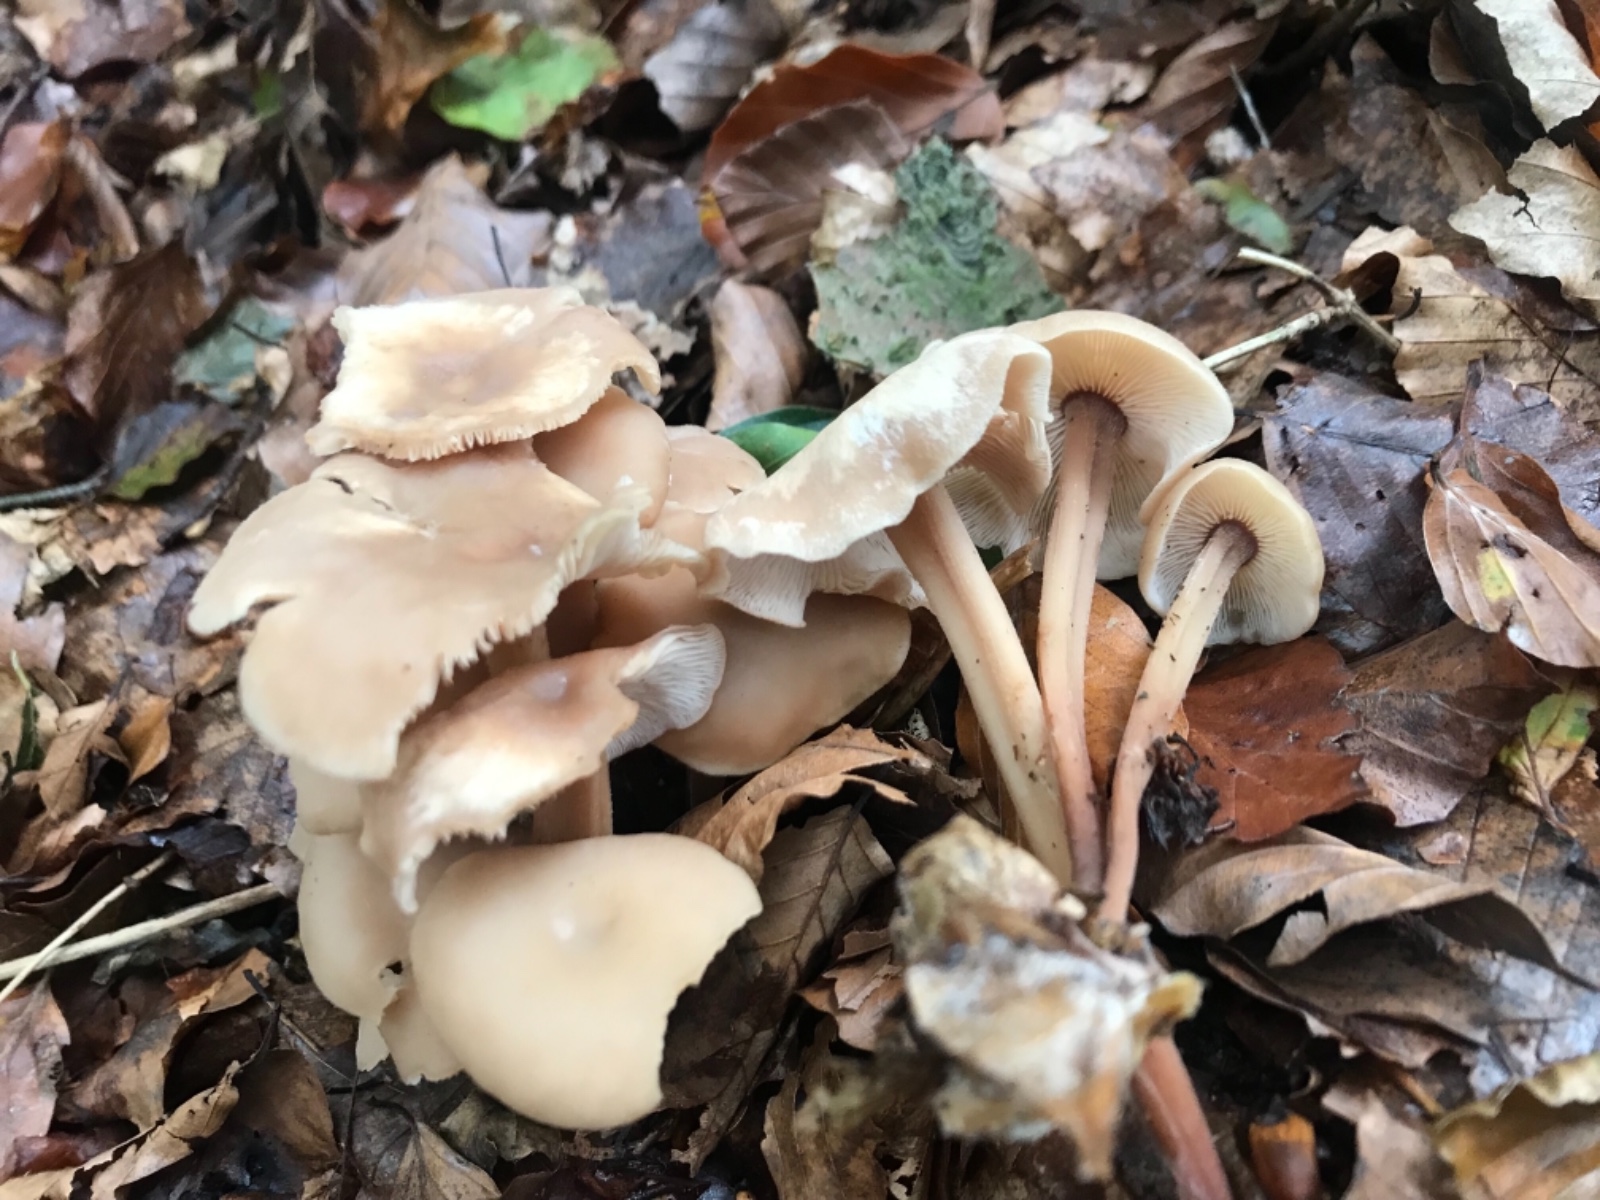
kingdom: Fungi
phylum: Basidiomycota
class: Agaricomycetes
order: Agaricales
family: Omphalotaceae
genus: Collybiopsis
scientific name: Collybiopsis confluens
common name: knippe-fladhat
